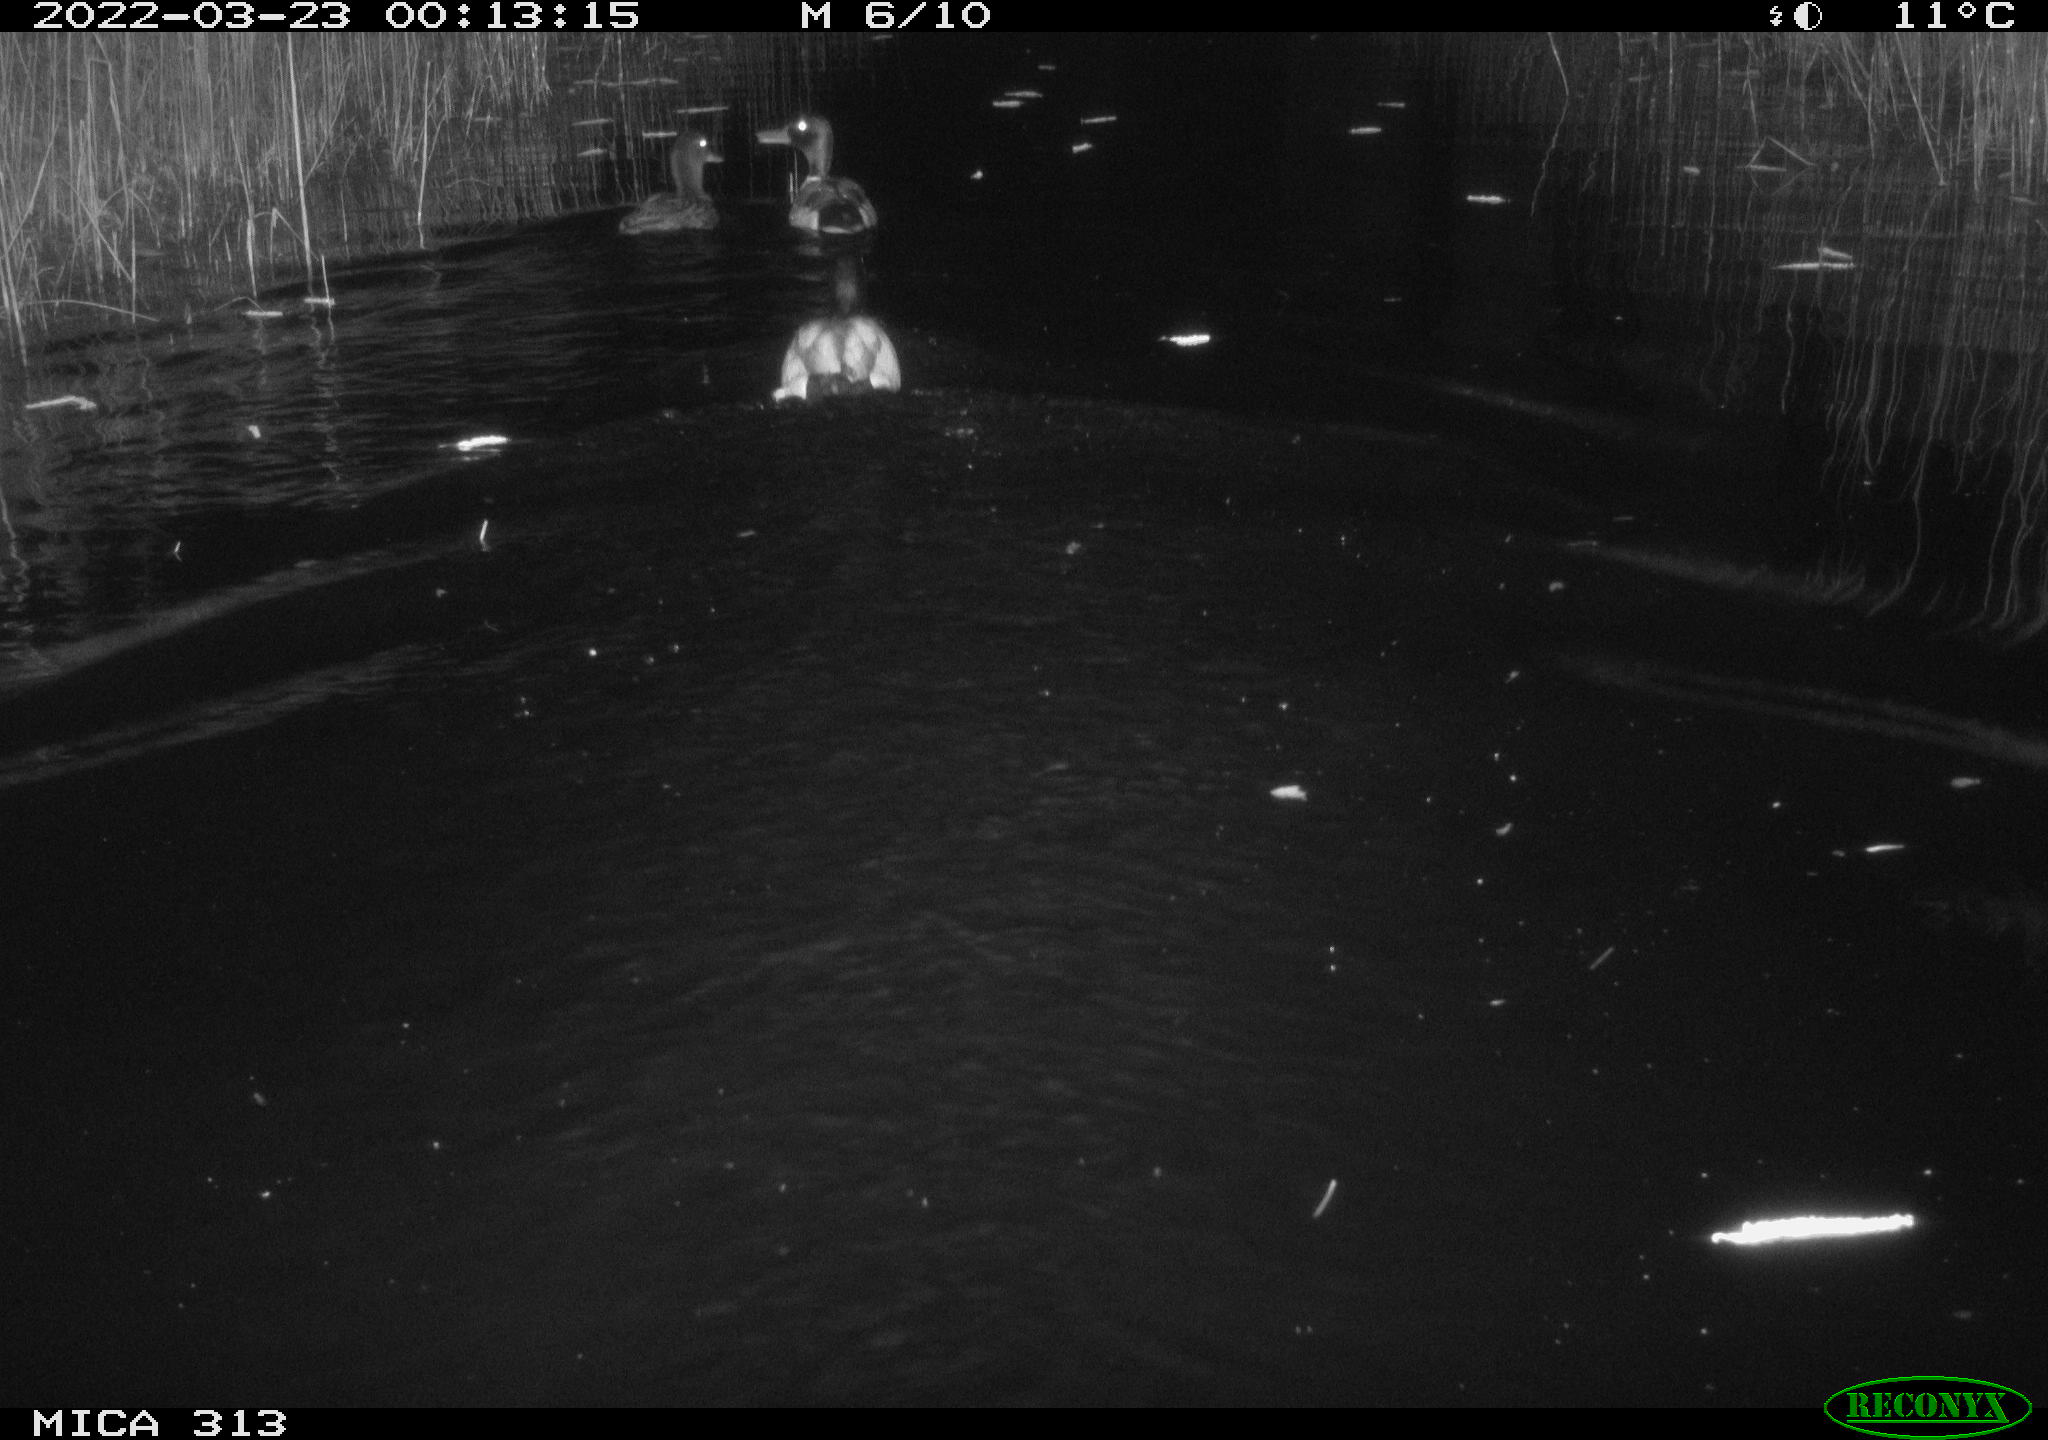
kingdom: Animalia
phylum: Chordata
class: Aves
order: Anseriformes
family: Anatidae
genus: Anas
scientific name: Anas platyrhynchos
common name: Mallard
